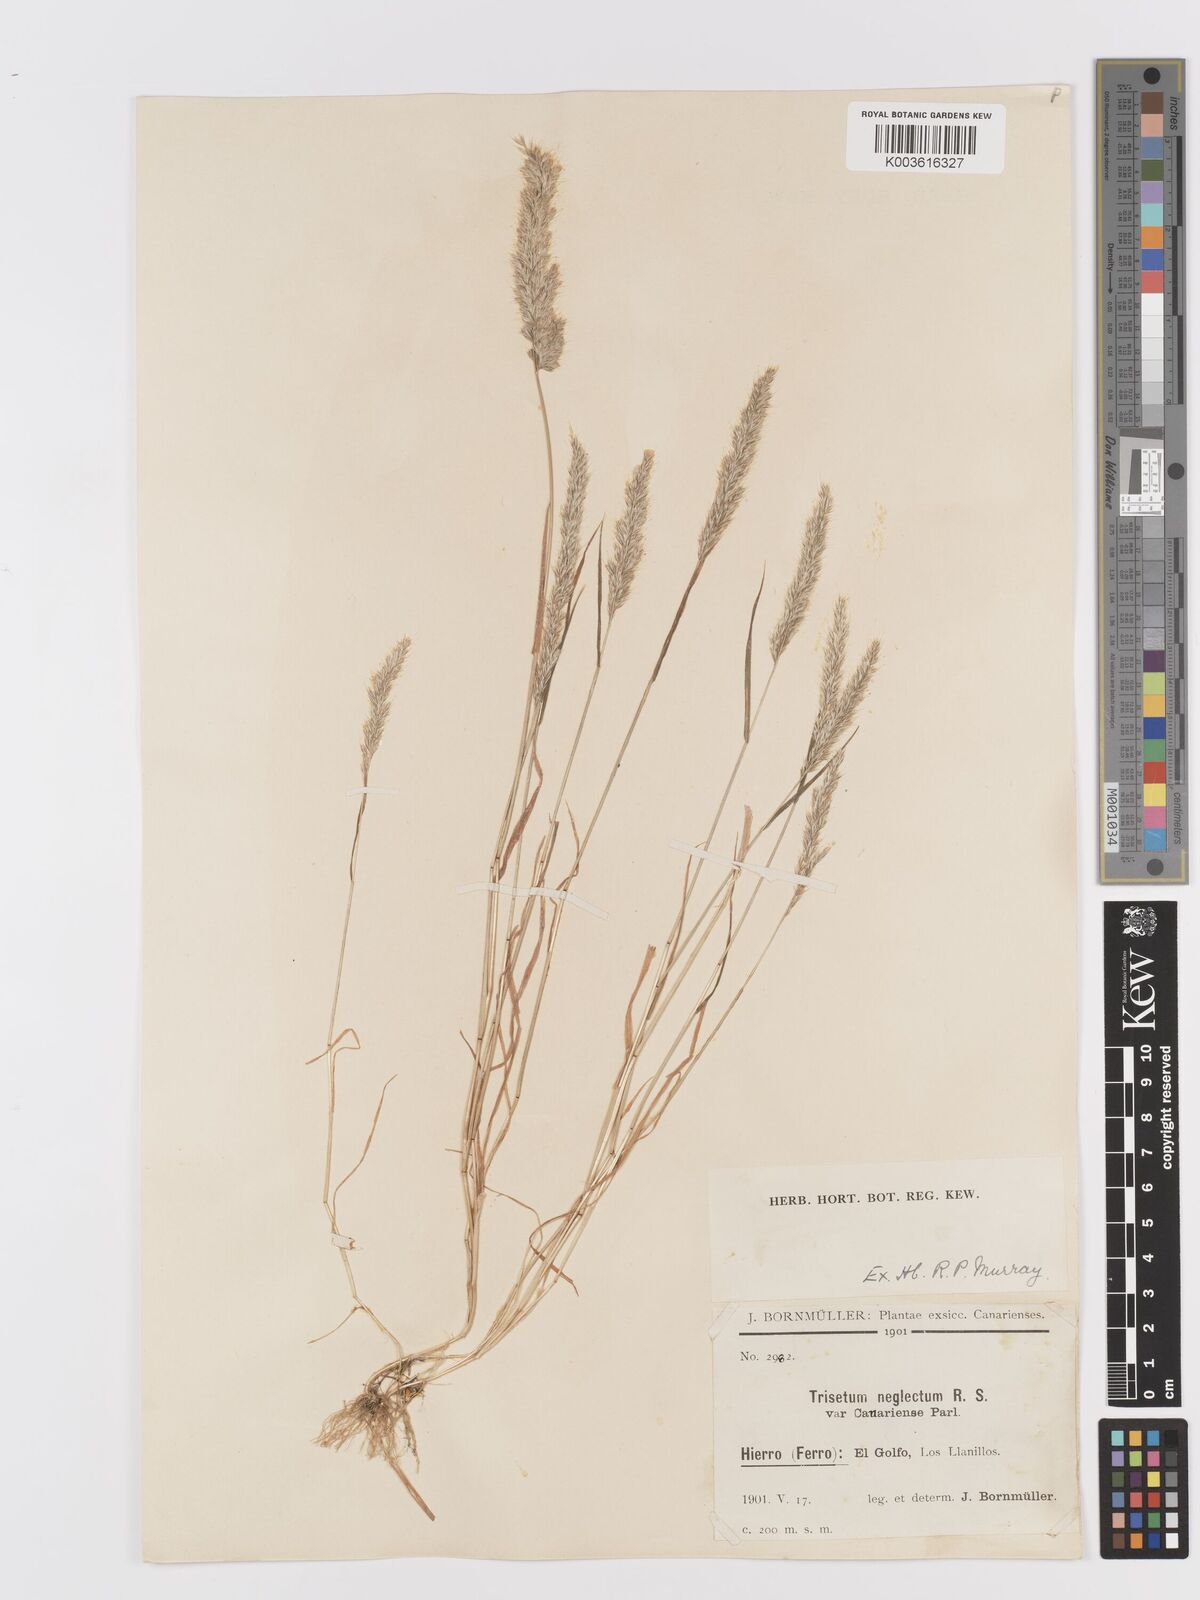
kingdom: Plantae
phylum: Tracheophyta
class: Liliopsida
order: Poales
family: Poaceae
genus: Trisetaria
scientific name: Trisetaria panicea
